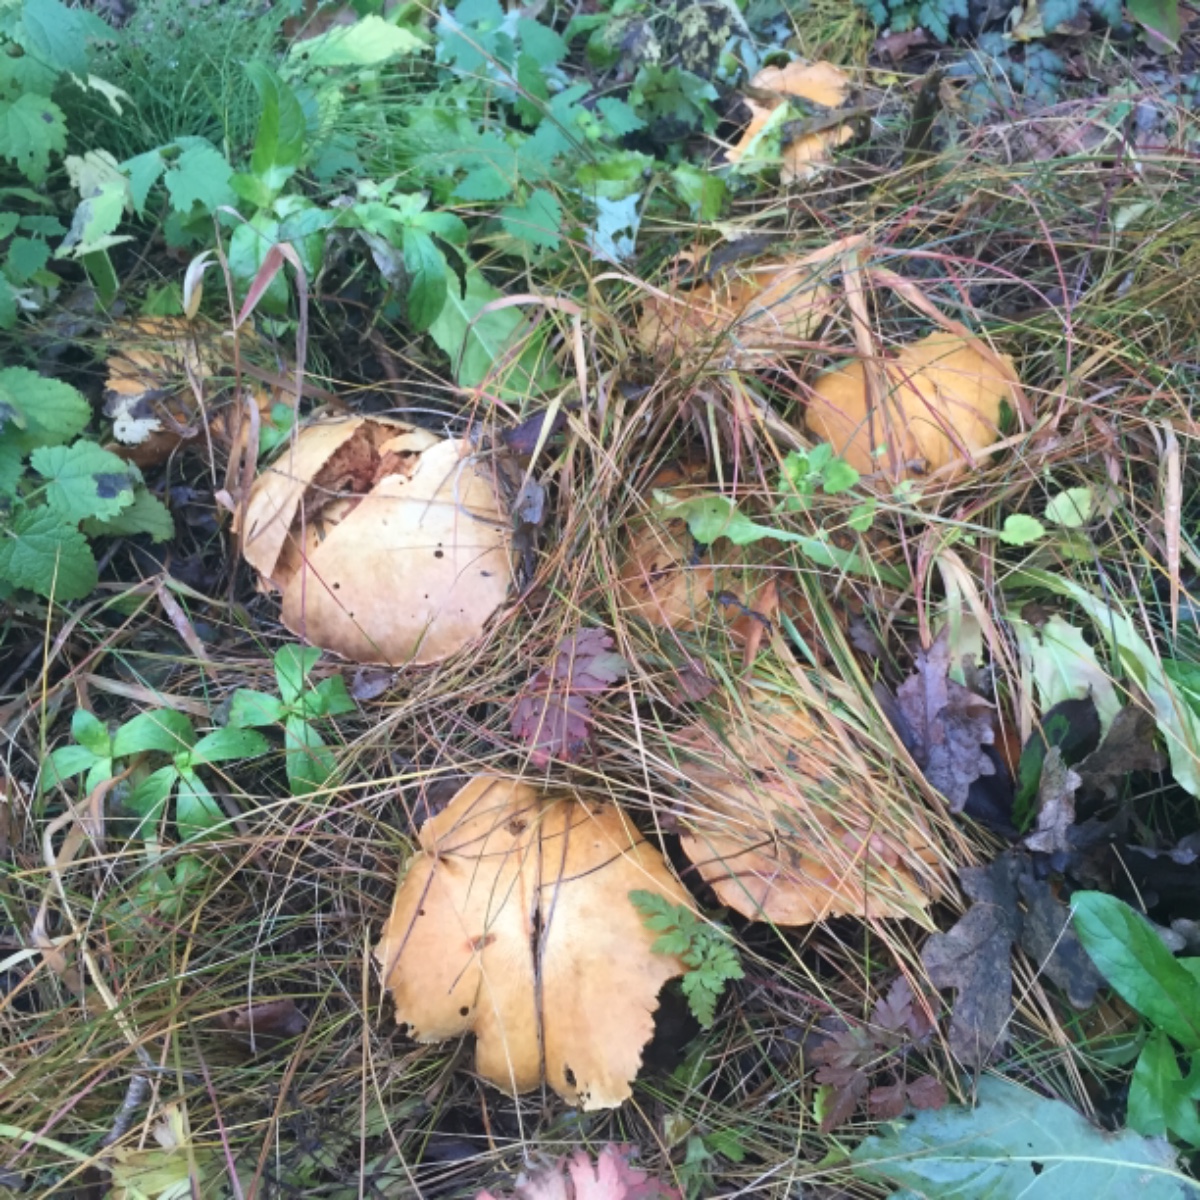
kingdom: Fungi
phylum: Basidiomycota
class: Agaricomycetes
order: Agaricales
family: Tricholomataceae
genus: Phaeolepiota
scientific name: Phaeolepiota aurea
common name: gyldenhat
